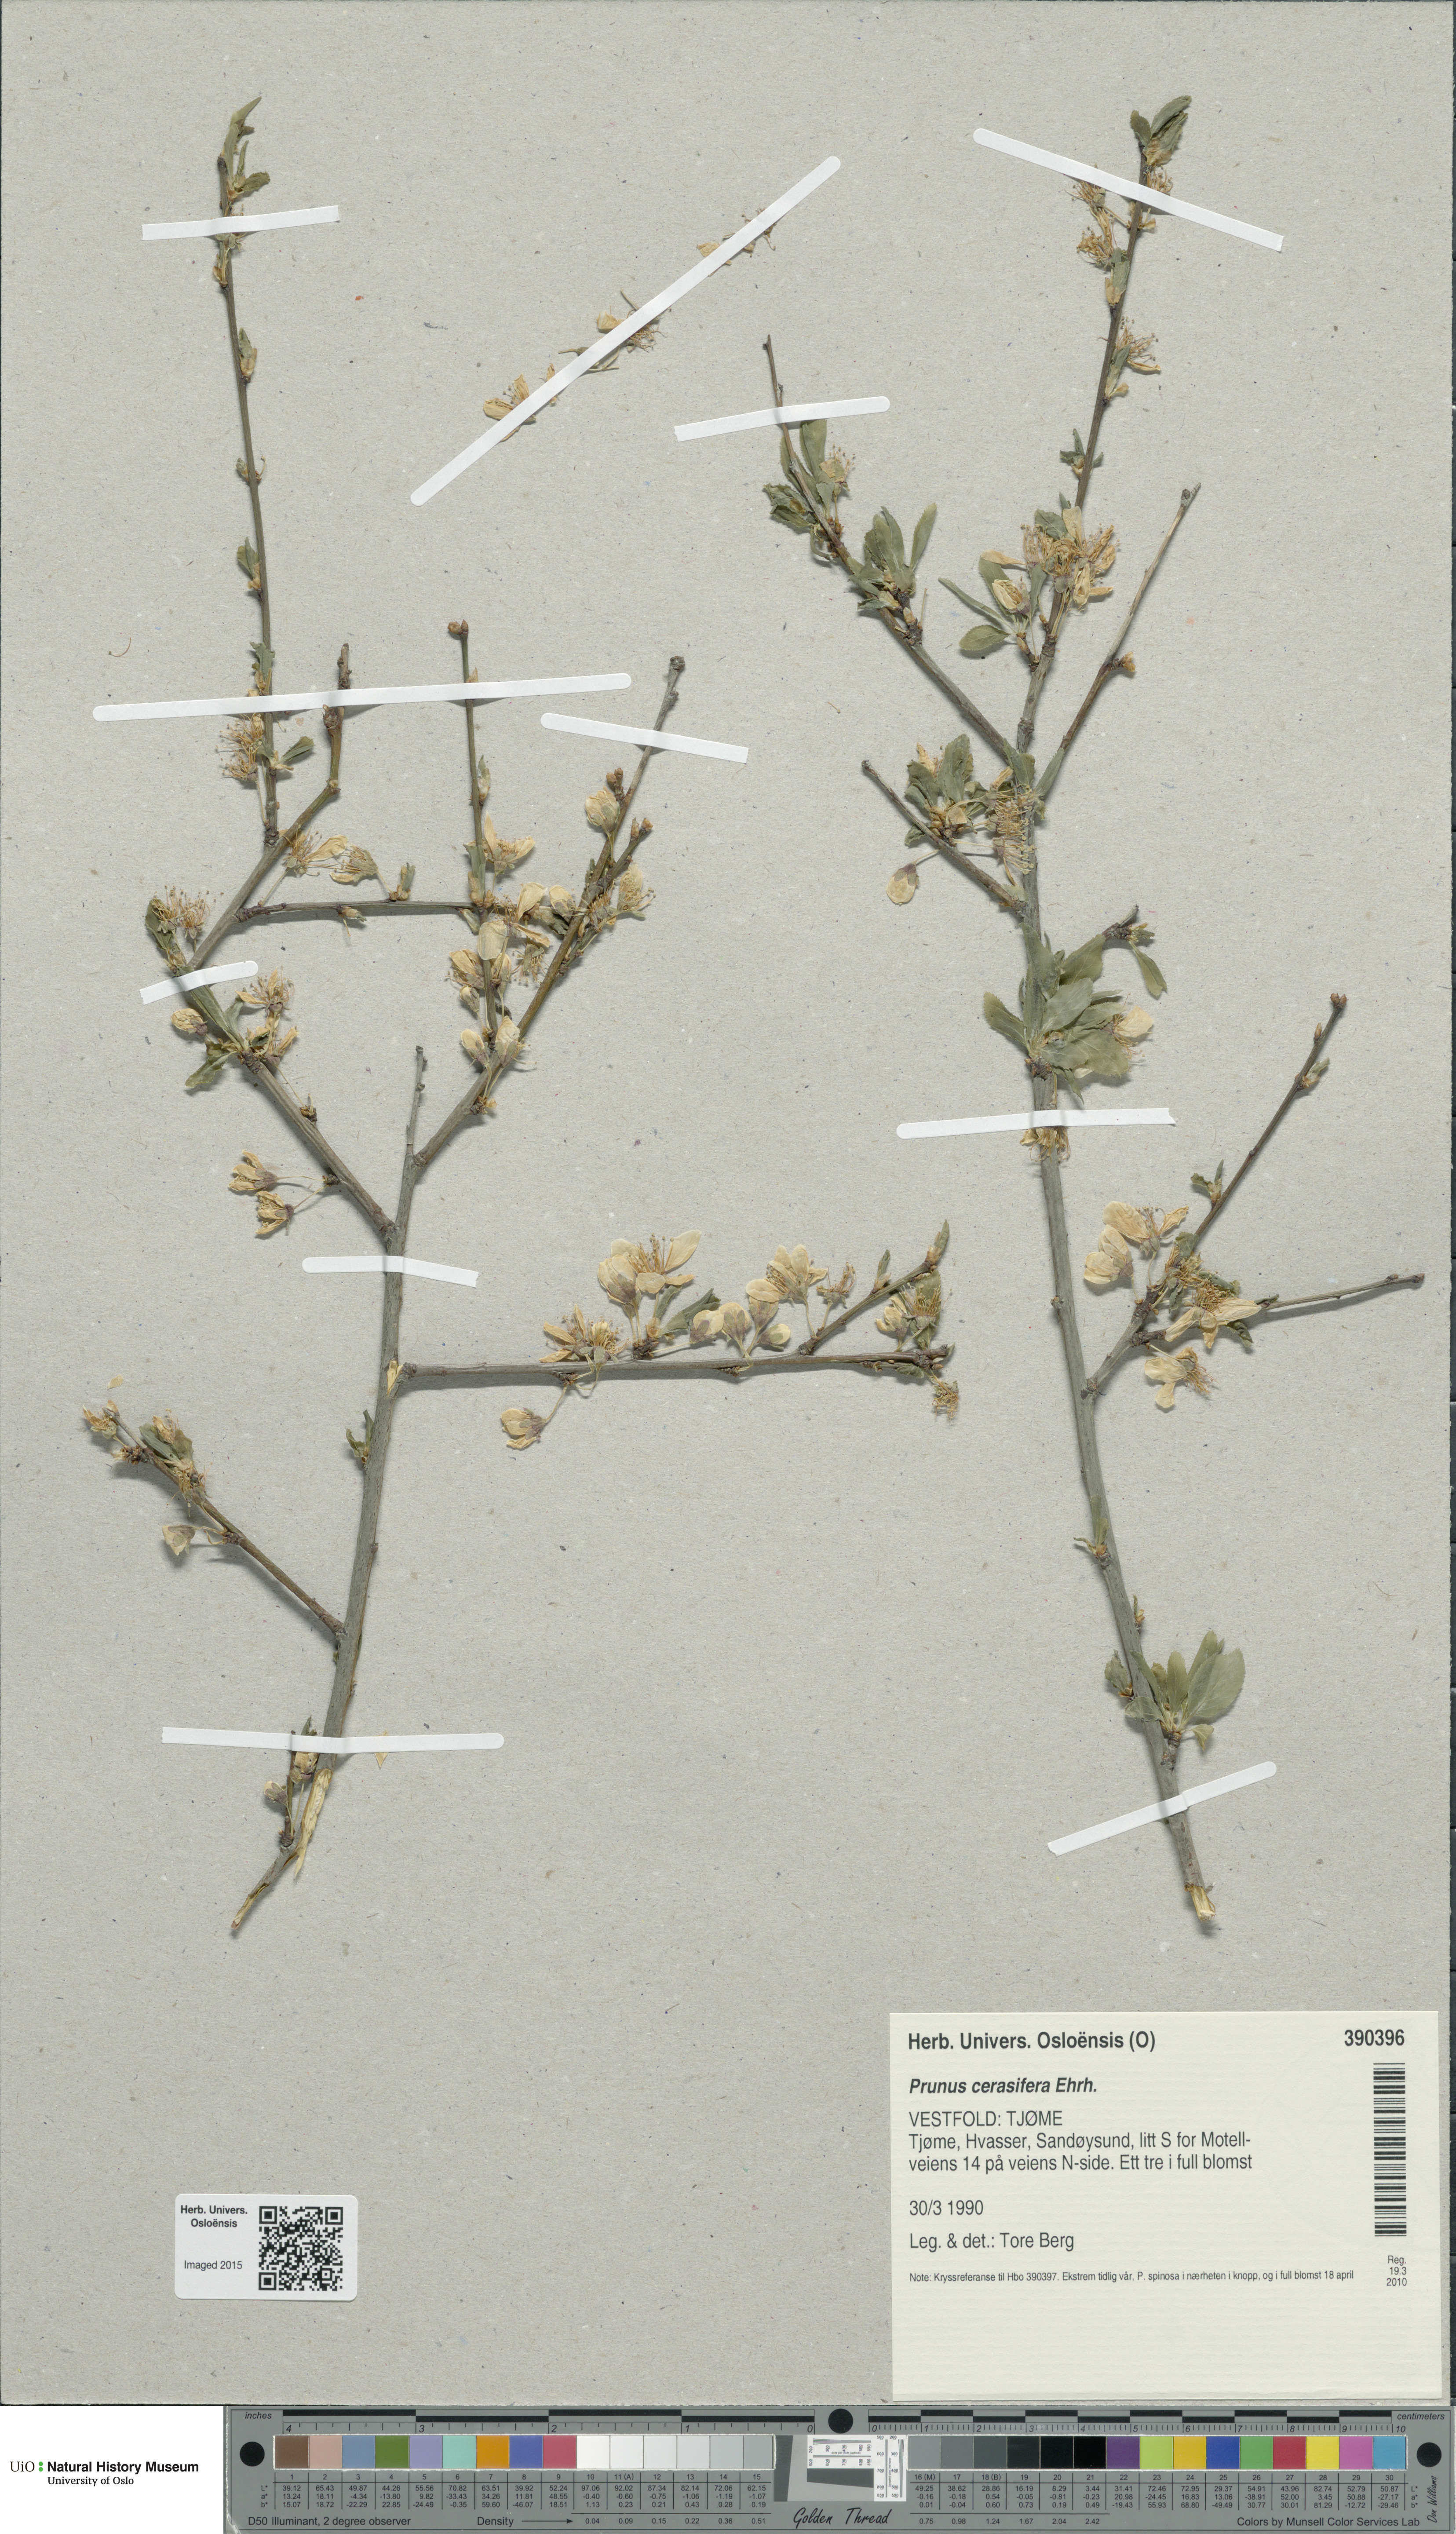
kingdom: Plantae
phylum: Tracheophyta
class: Magnoliopsida
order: Rosales
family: Rosaceae
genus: Prunus
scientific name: Prunus cerasifera
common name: Cherry plum
